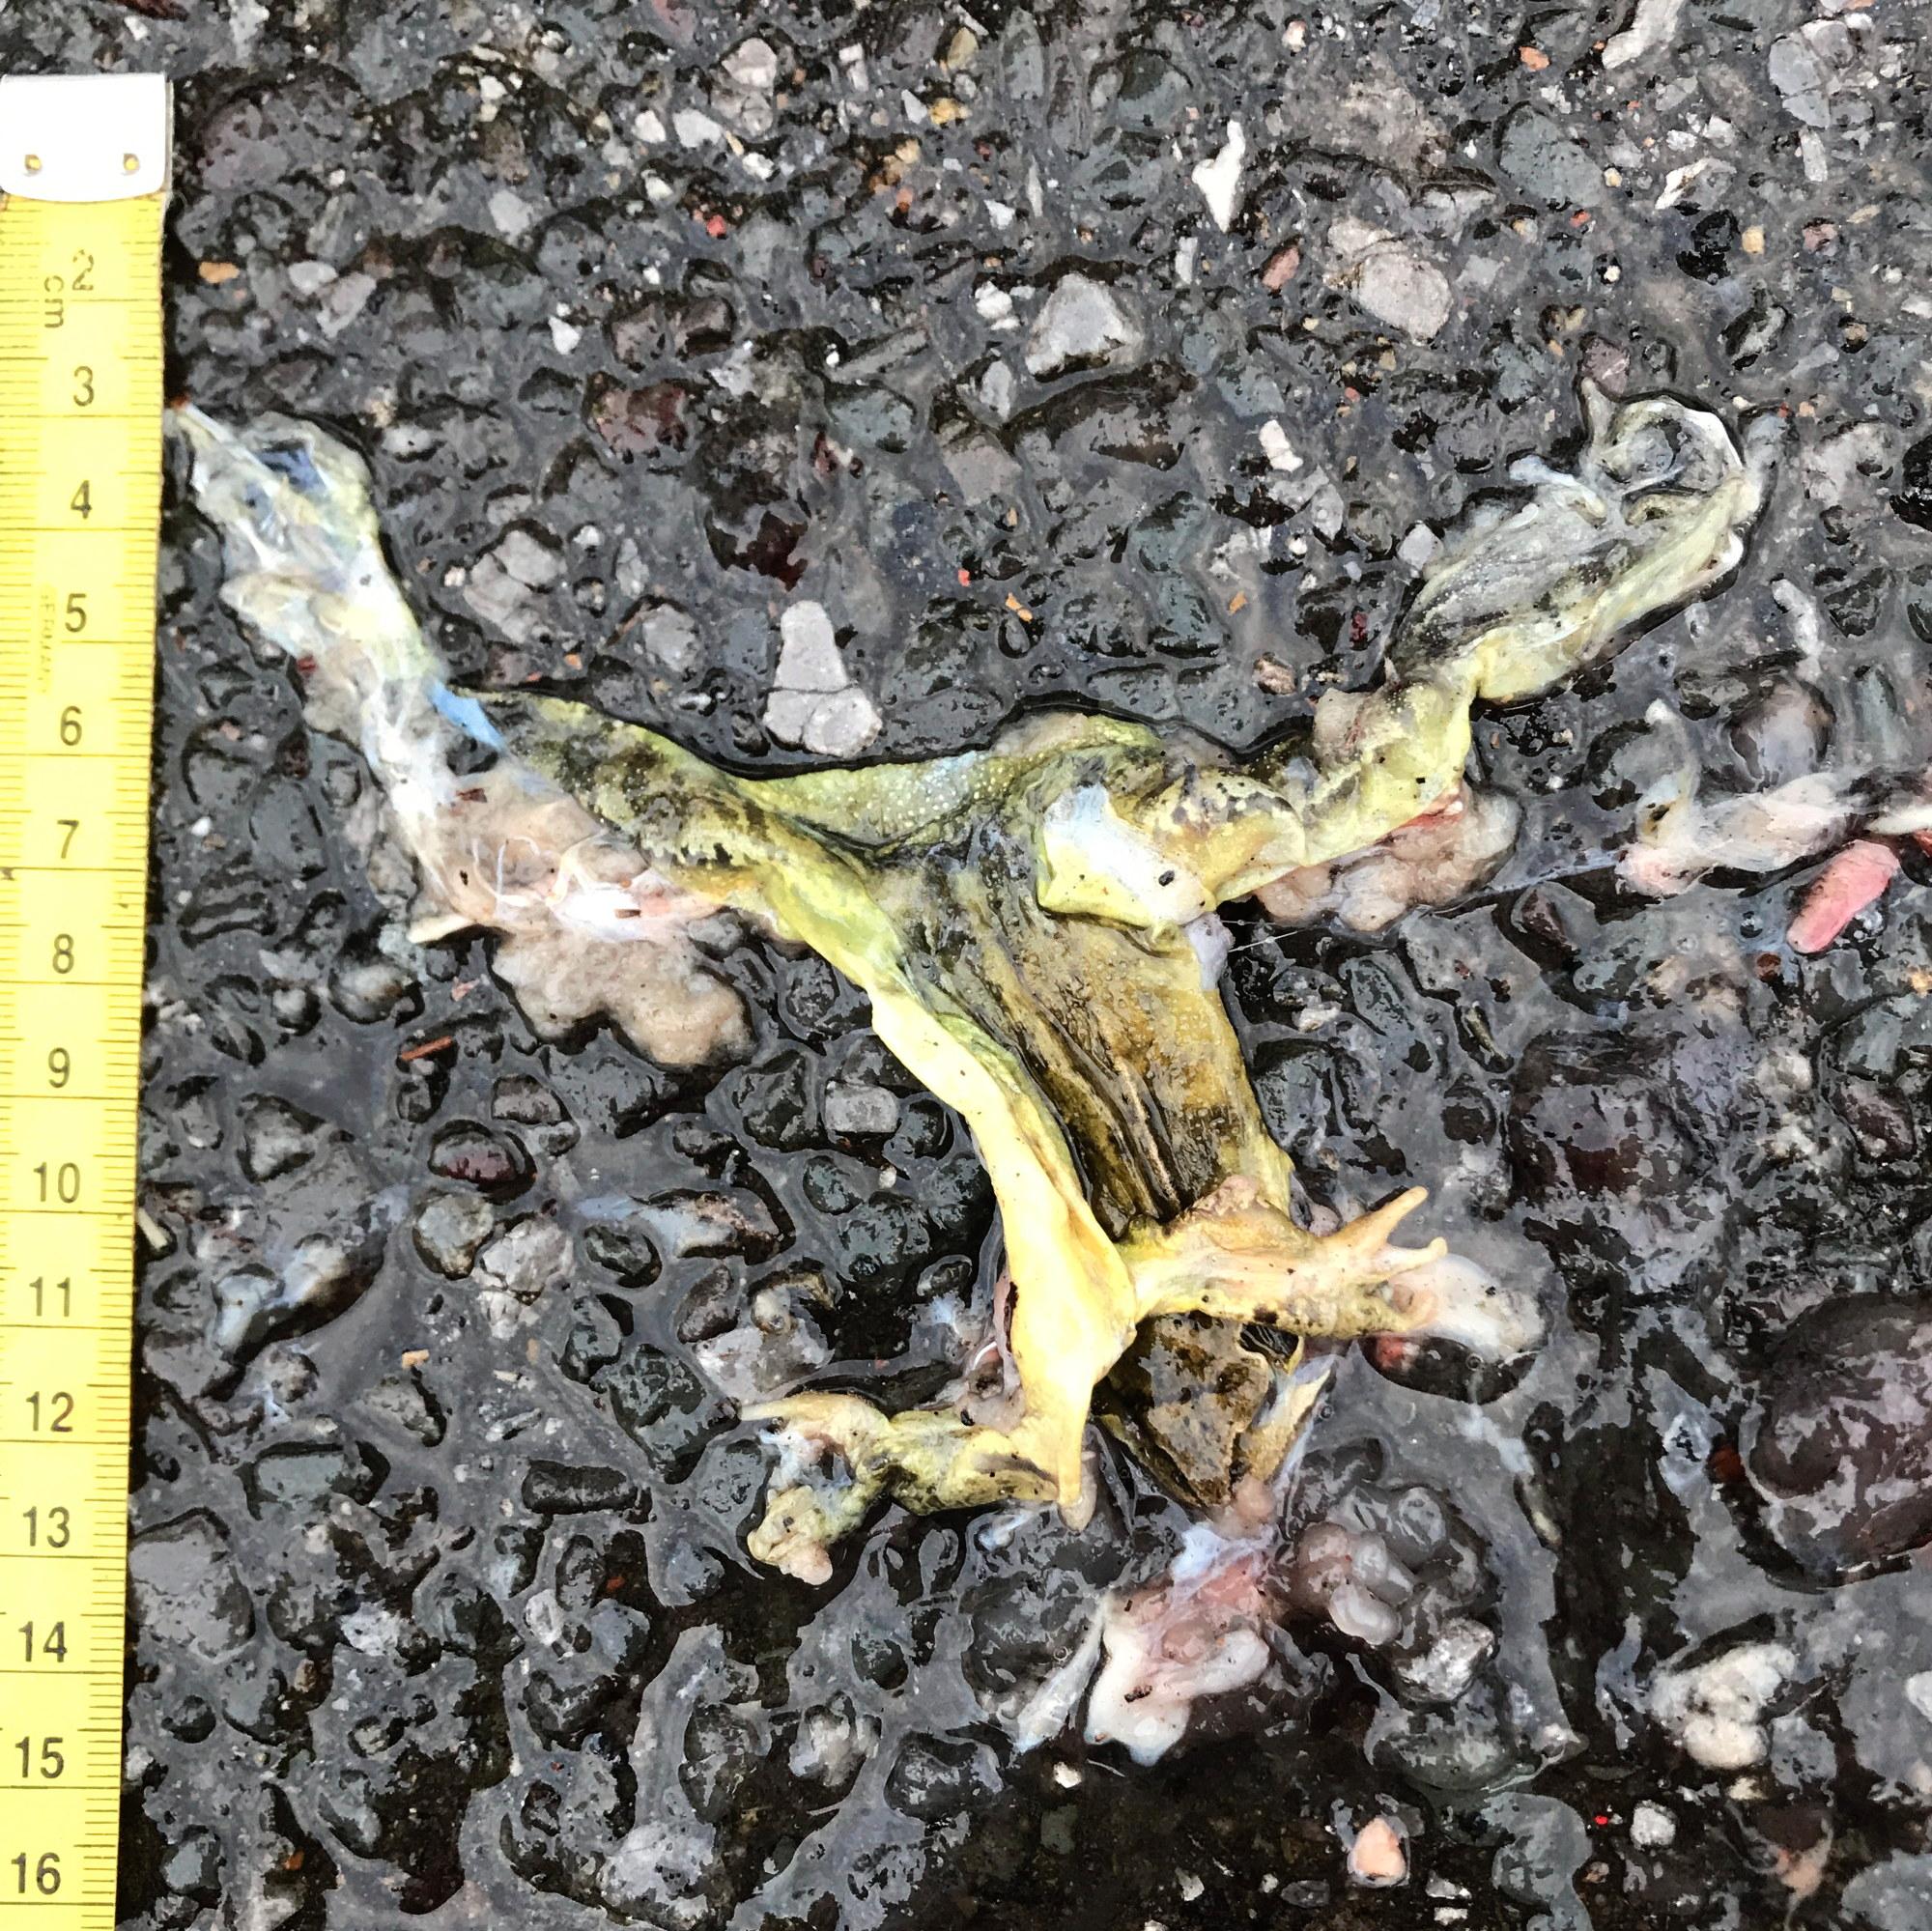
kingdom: Animalia
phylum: Chordata
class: Amphibia
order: Anura
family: Ranidae
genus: Rana
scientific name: Rana dalmatina
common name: Agile frog
